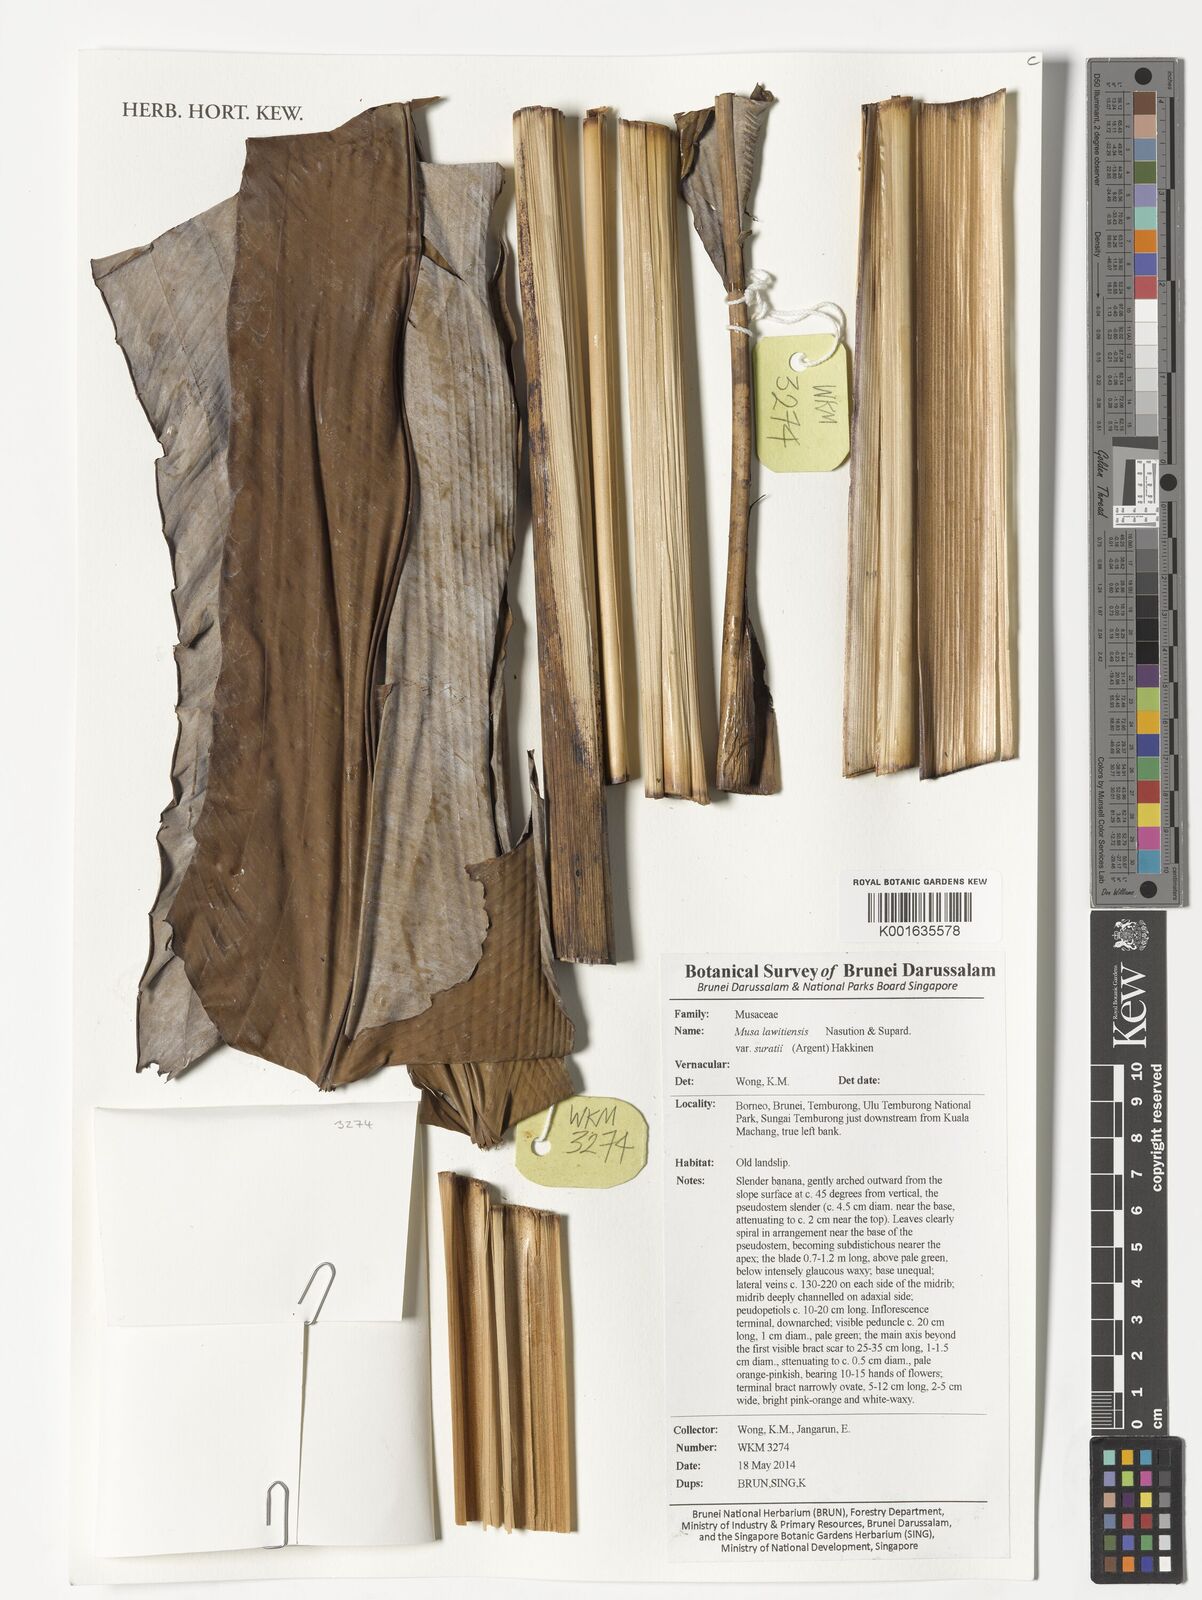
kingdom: Plantae
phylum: Tracheophyta
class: Liliopsida
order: Zingiberales
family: Musaceae
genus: Musa
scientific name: Musa lawitiensis
